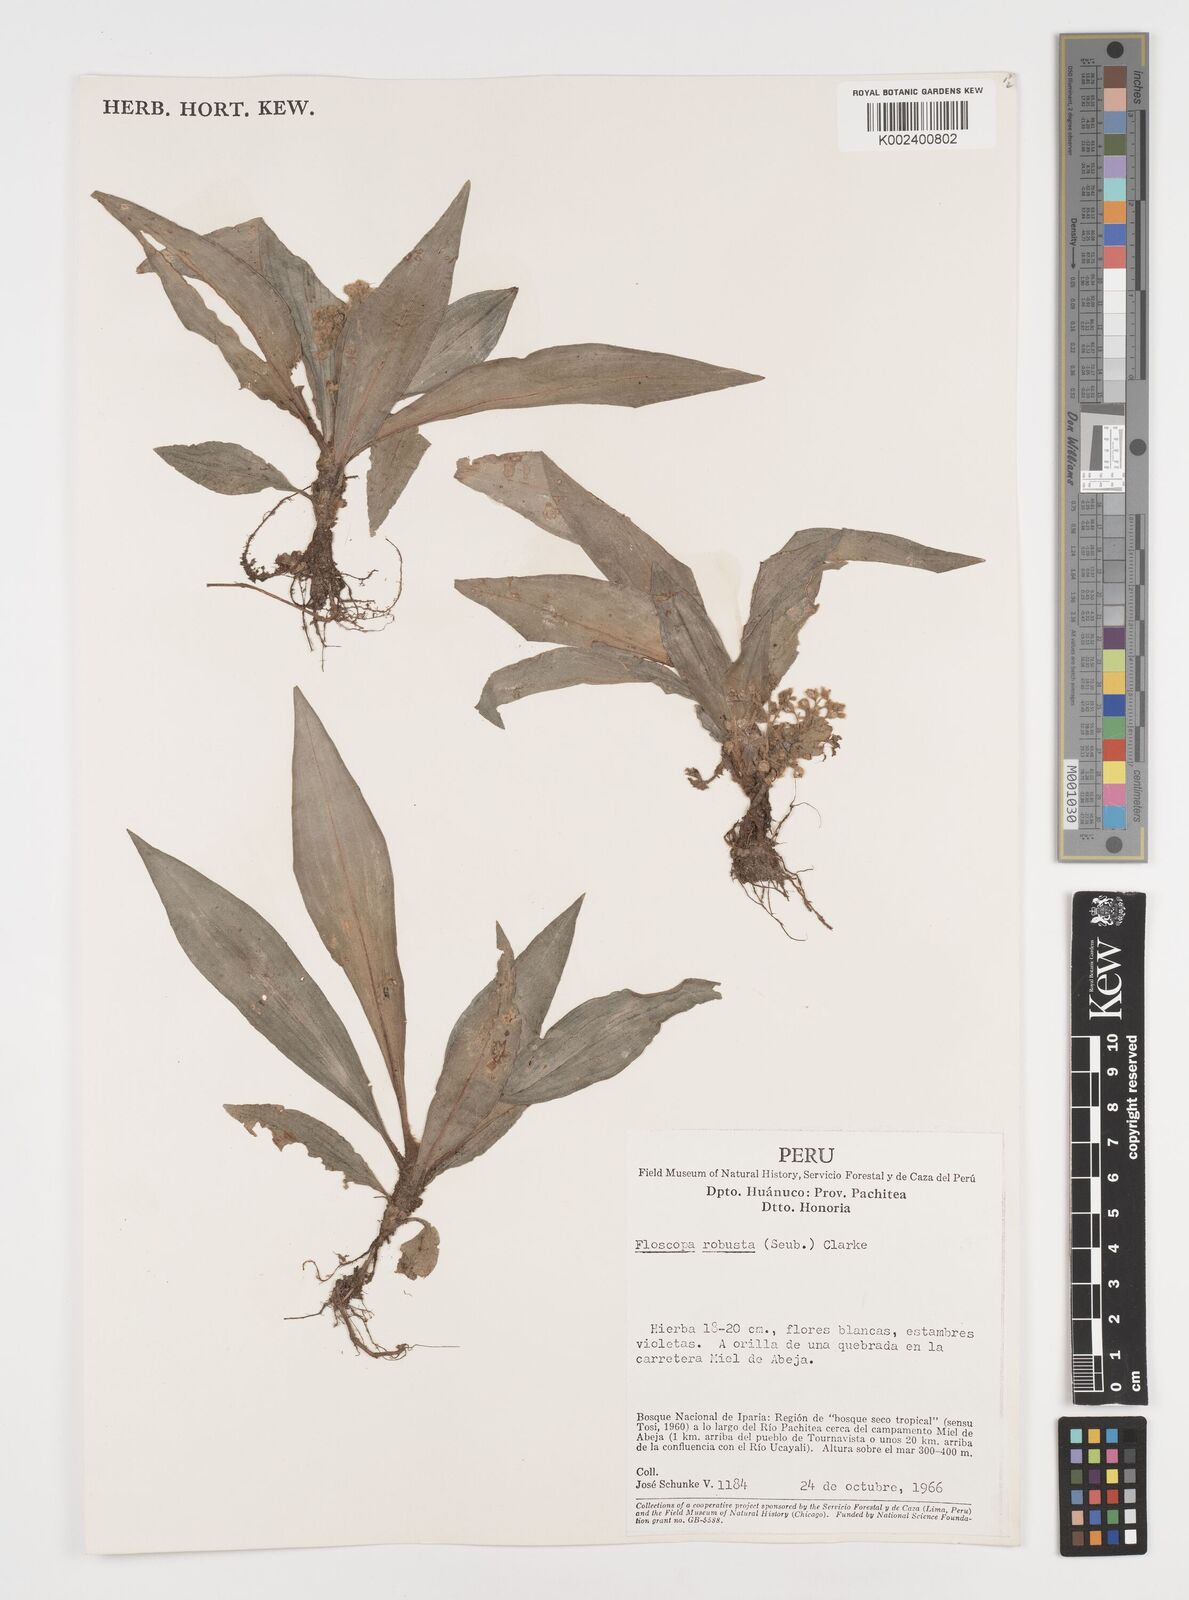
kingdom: Plantae
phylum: Tracheophyta
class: Liliopsida
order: Commelinales
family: Commelinaceae
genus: Floscopa
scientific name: Floscopa robusta
